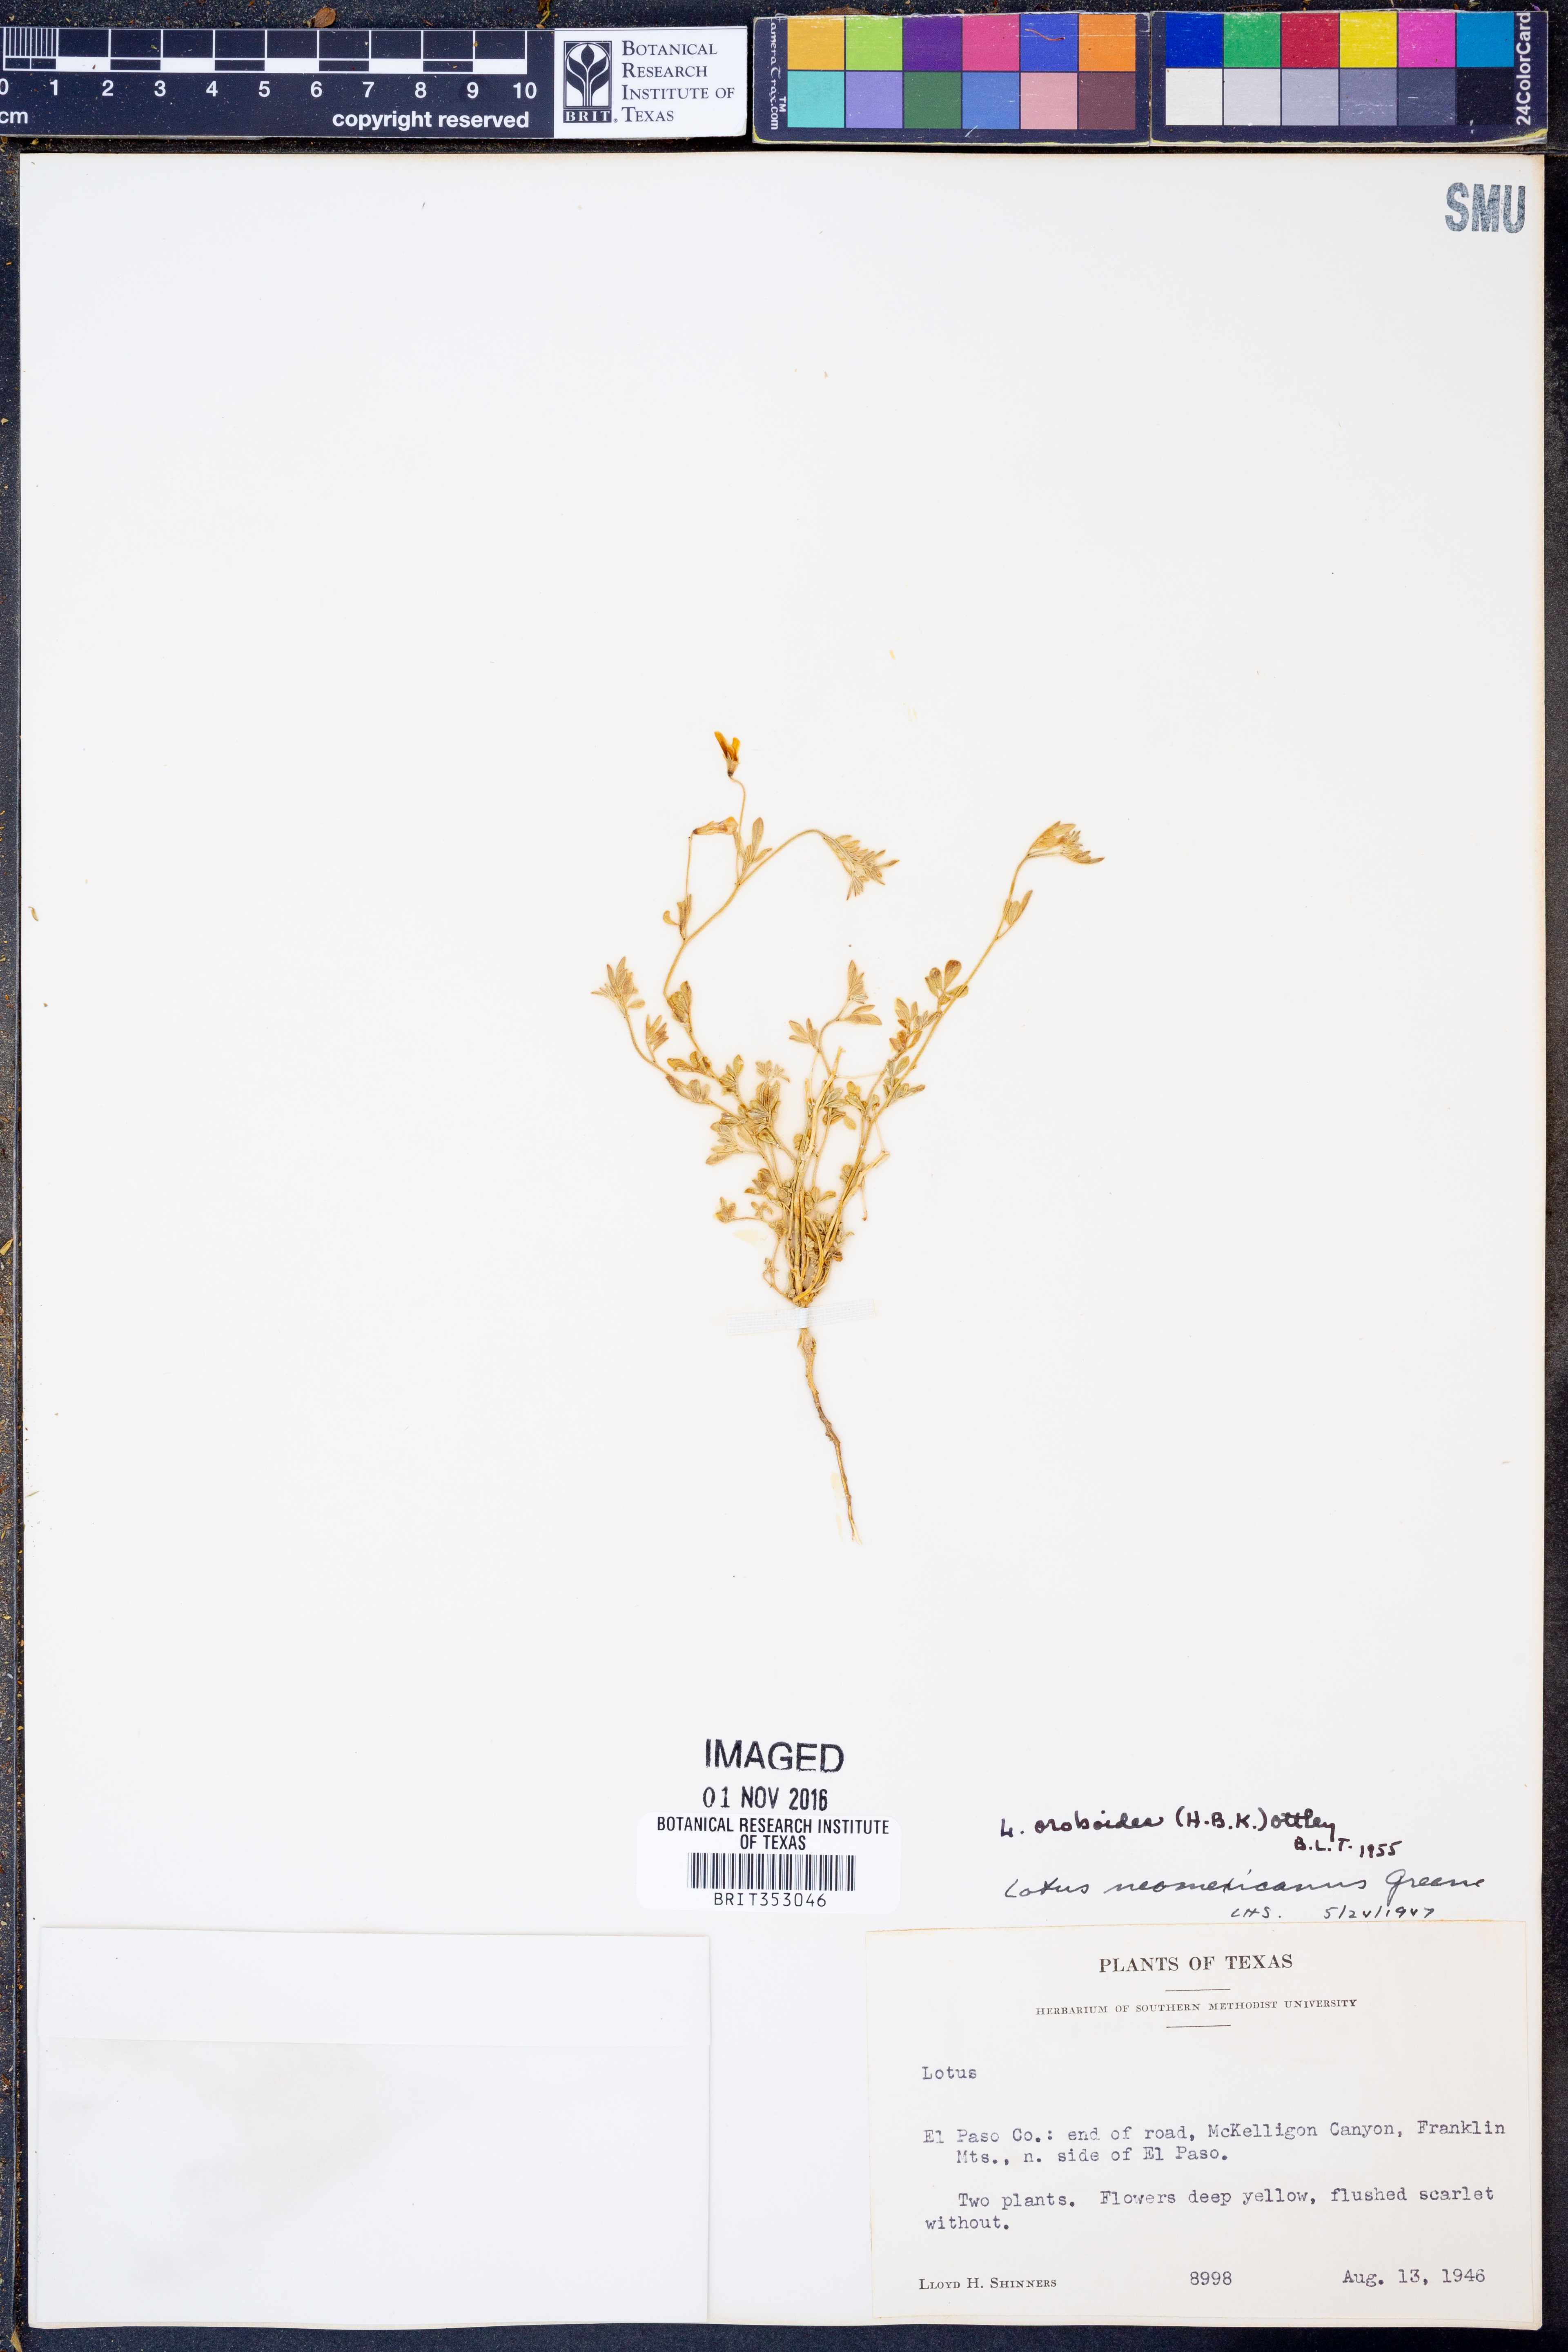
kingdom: Plantae
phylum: Tracheophyta
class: Magnoliopsida
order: Fabales
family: Fabaceae
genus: Acmispon
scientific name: Acmispon oroboides
